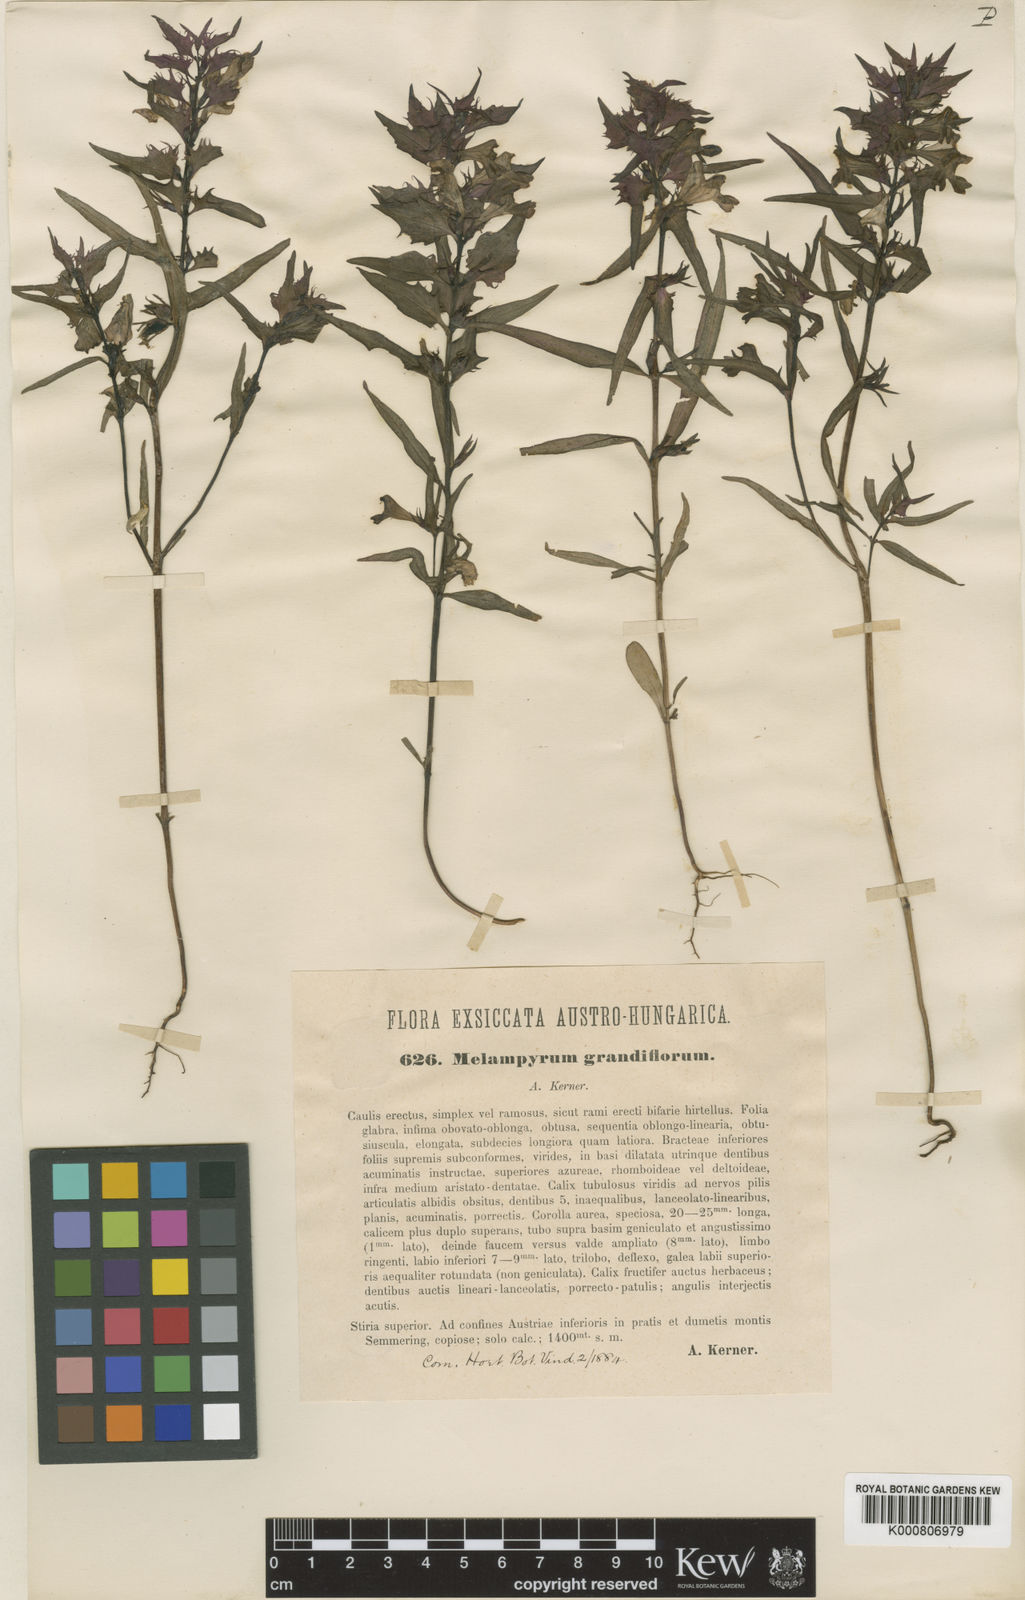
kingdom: Plantae
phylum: Tracheophyta
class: Magnoliopsida
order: Lamiales
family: Orobanchaceae
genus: Melampyrum
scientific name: Melampyrum subalpinum
